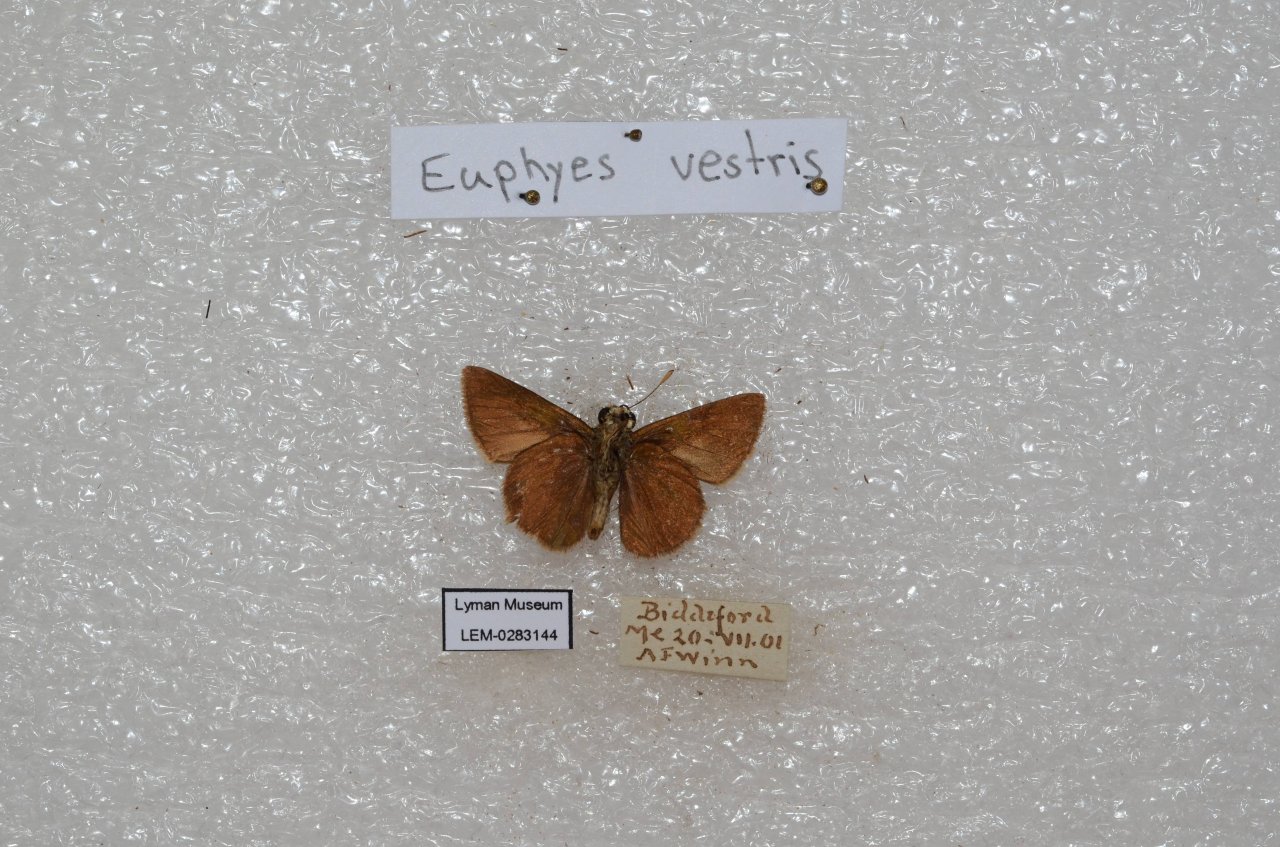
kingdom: Animalia
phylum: Arthropoda
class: Insecta
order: Lepidoptera
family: Hesperiidae
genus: Euphyes
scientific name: Euphyes vestris
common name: Dun Skipper
